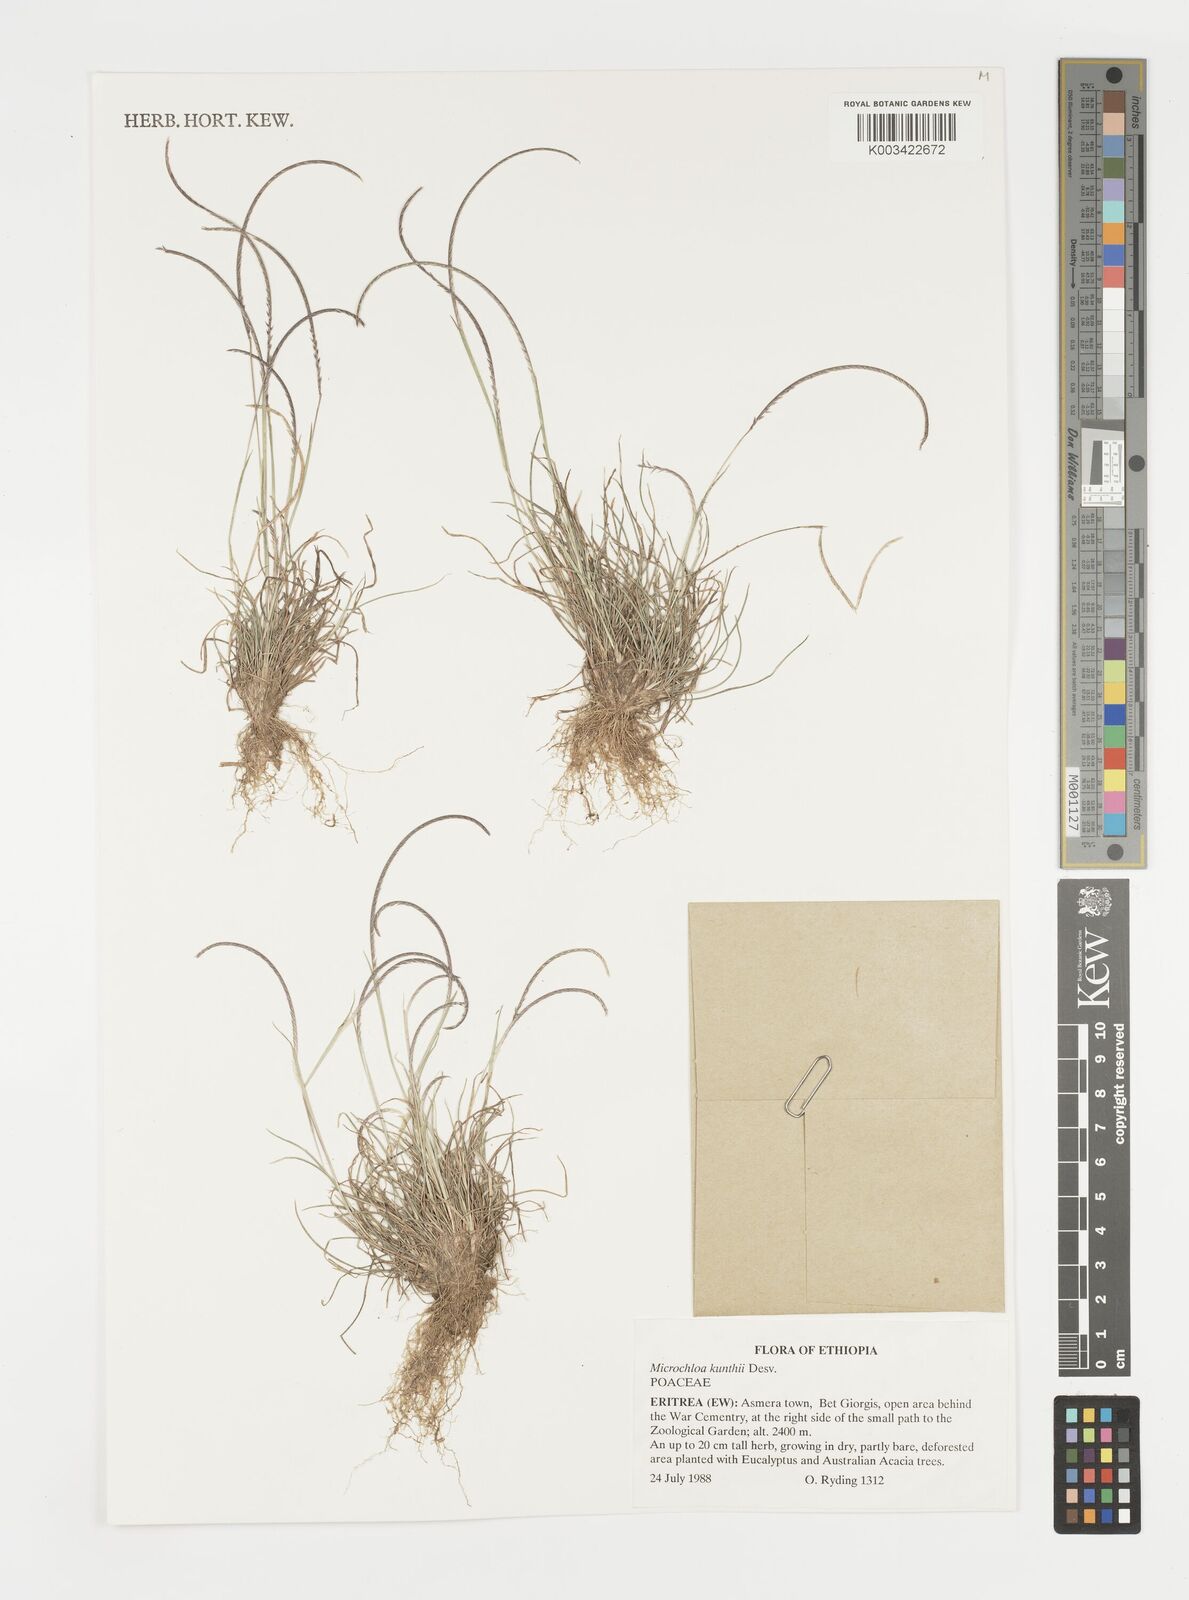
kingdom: Plantae
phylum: Tracheophyta
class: Liliopsida
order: Poales
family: Poaceae
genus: Microchloa
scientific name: Microchloa kunthii
